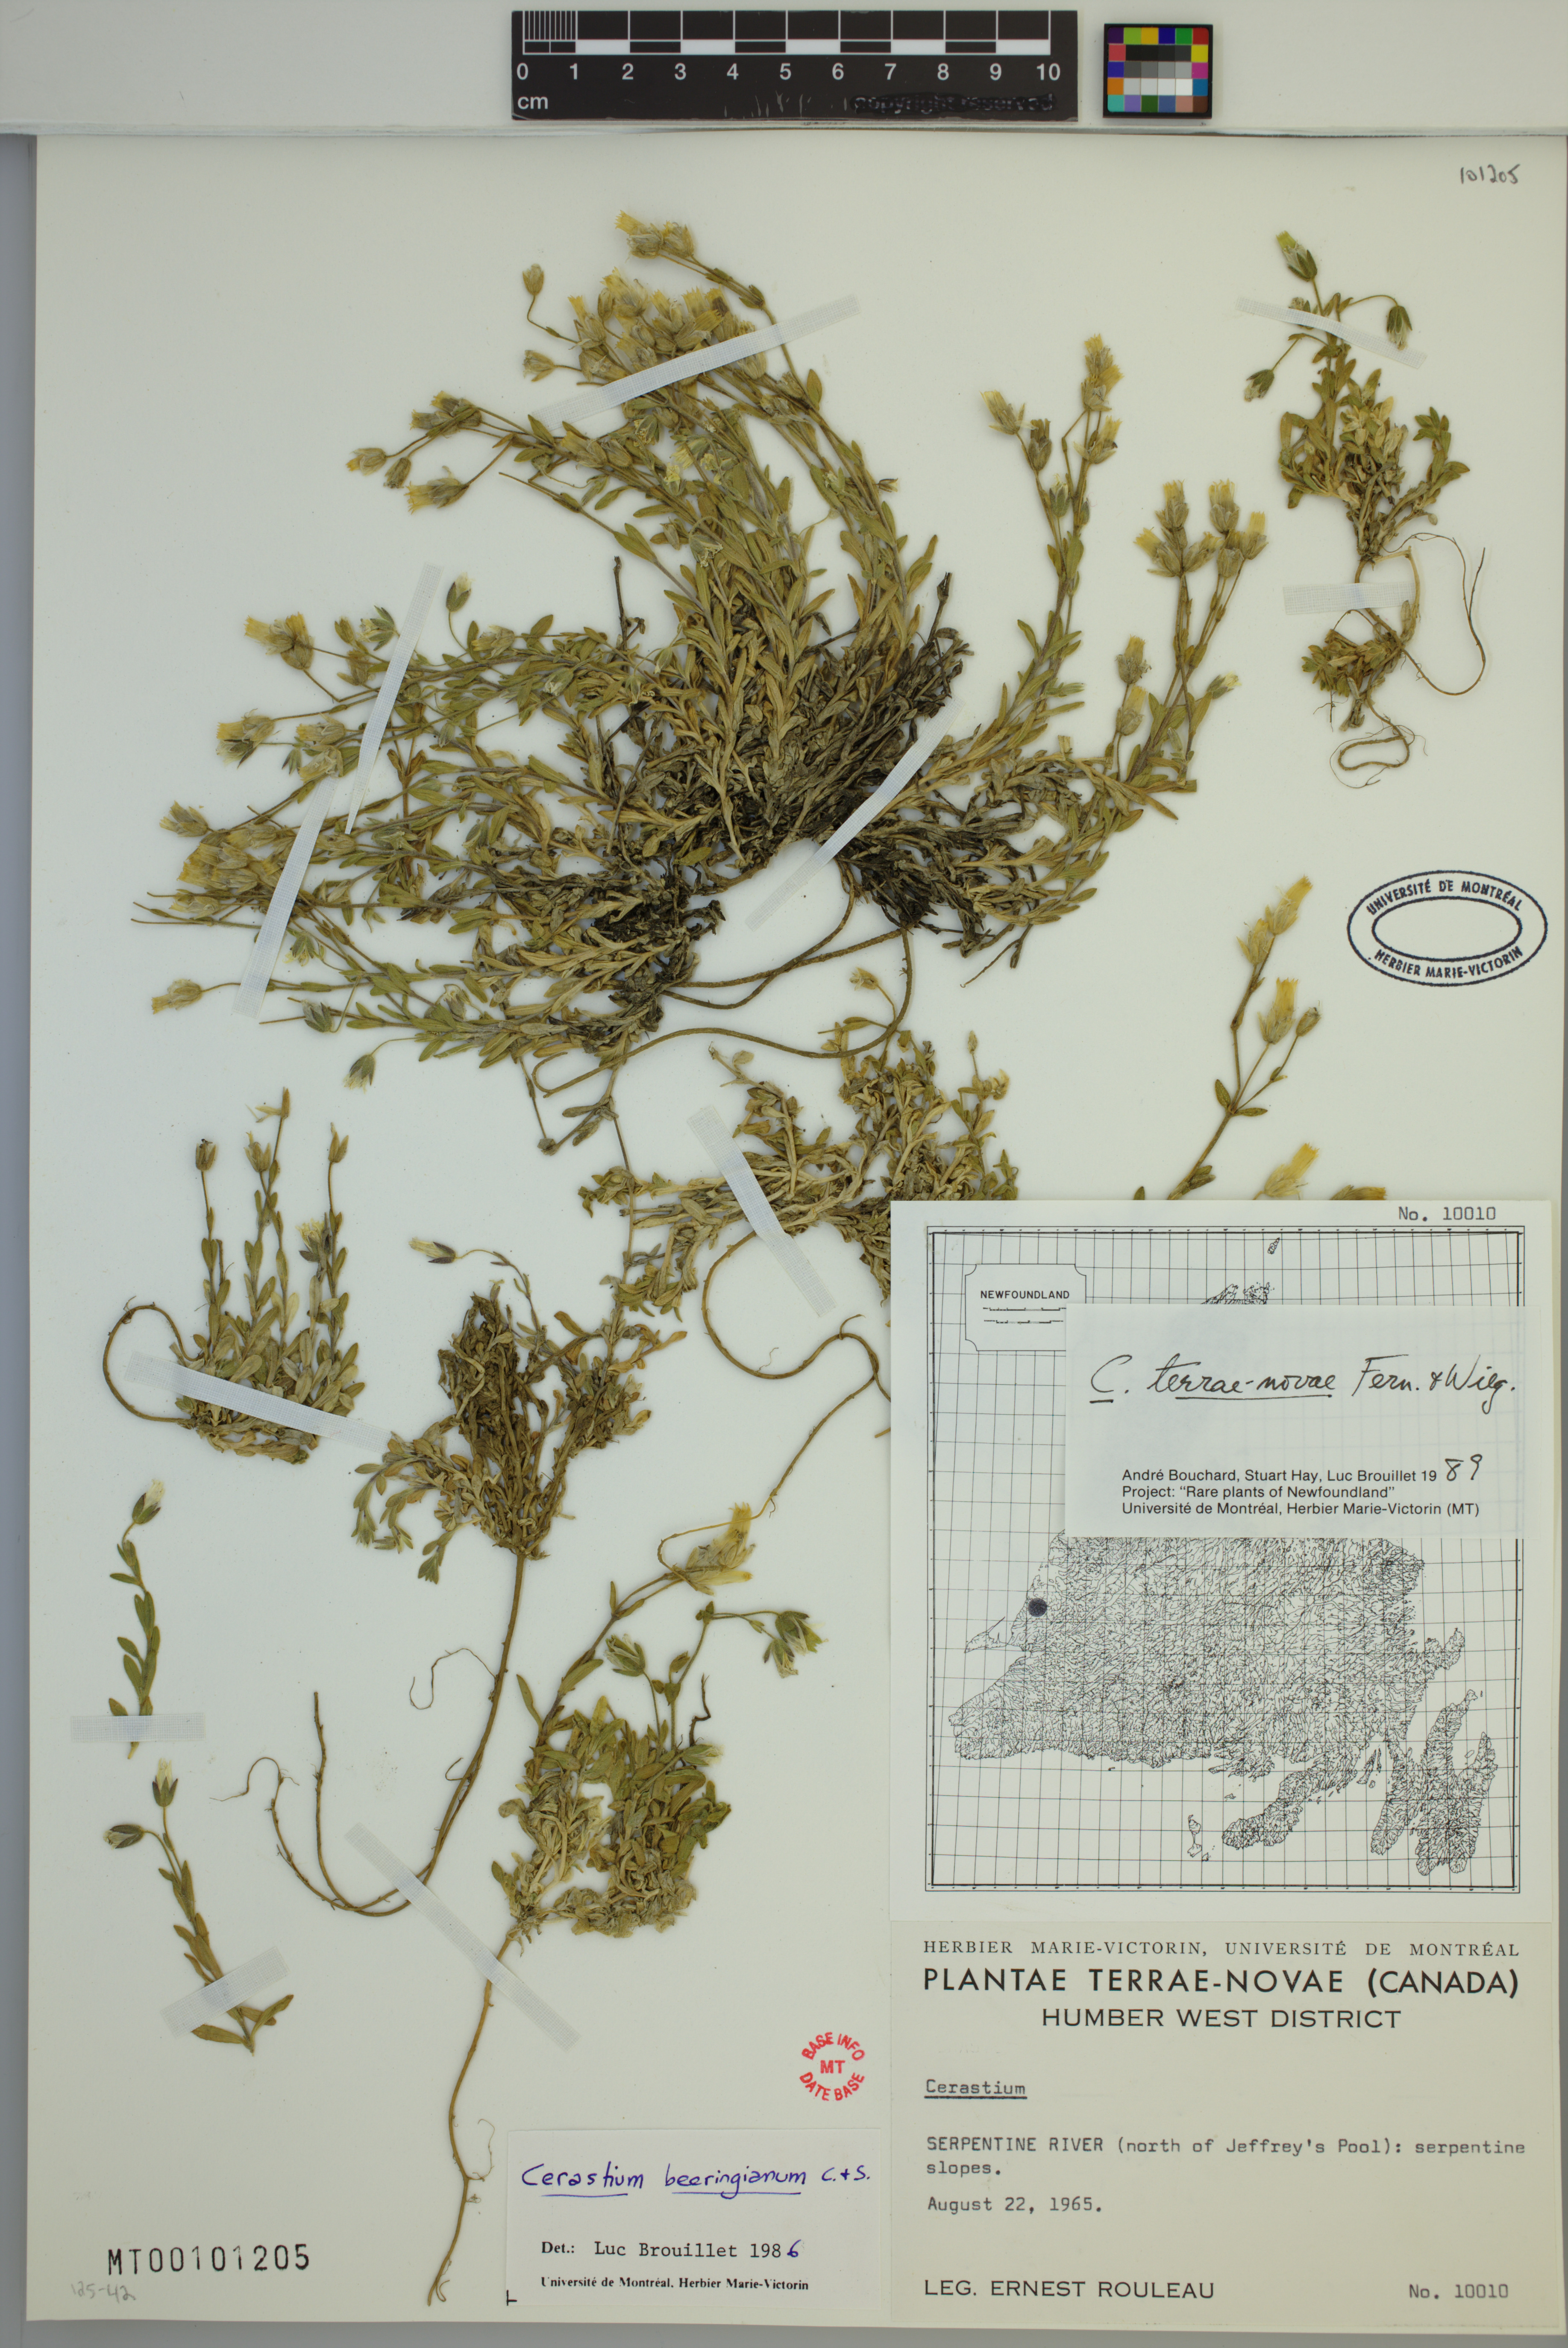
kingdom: Plantae
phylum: Tracheophyta
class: Magnoliopsida
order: Caryophyllales
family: Caryophyllaceae
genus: Cerastium
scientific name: Cerastium terrae-novae
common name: Newfoundland chickweed
